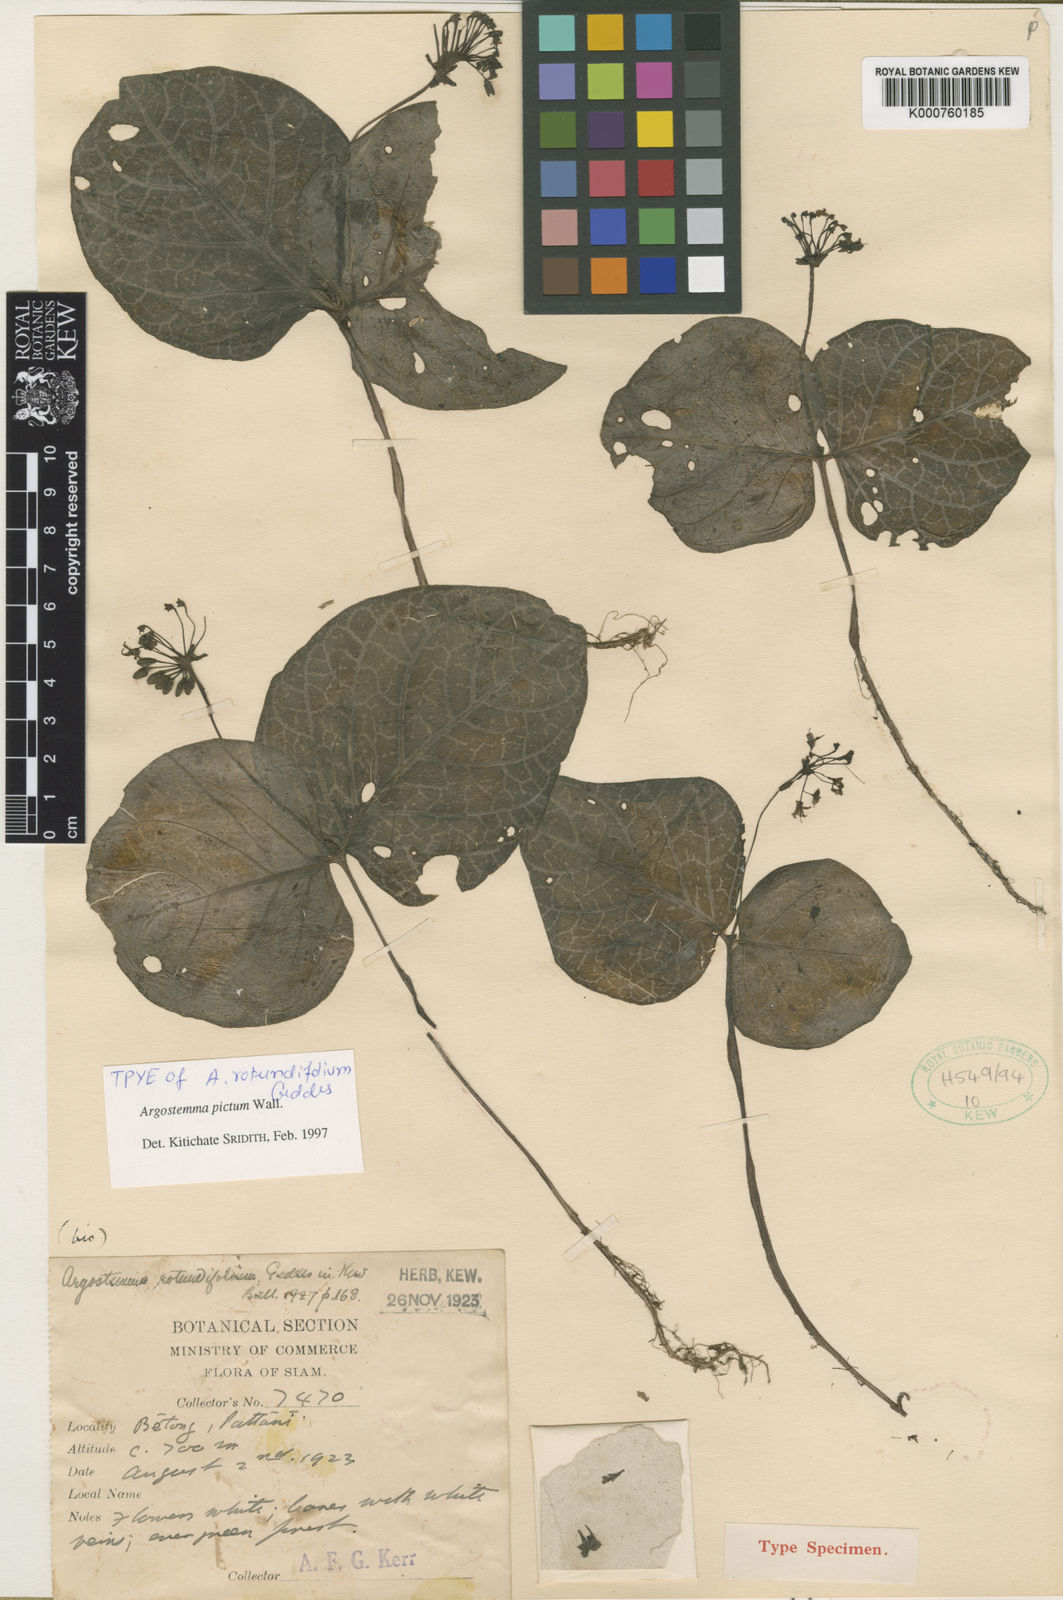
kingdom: Plantae
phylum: Tracheophyta
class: Magnoliopsida
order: Gentianales
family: Rubiaceae
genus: Argostemma
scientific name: Argostemma pictum
